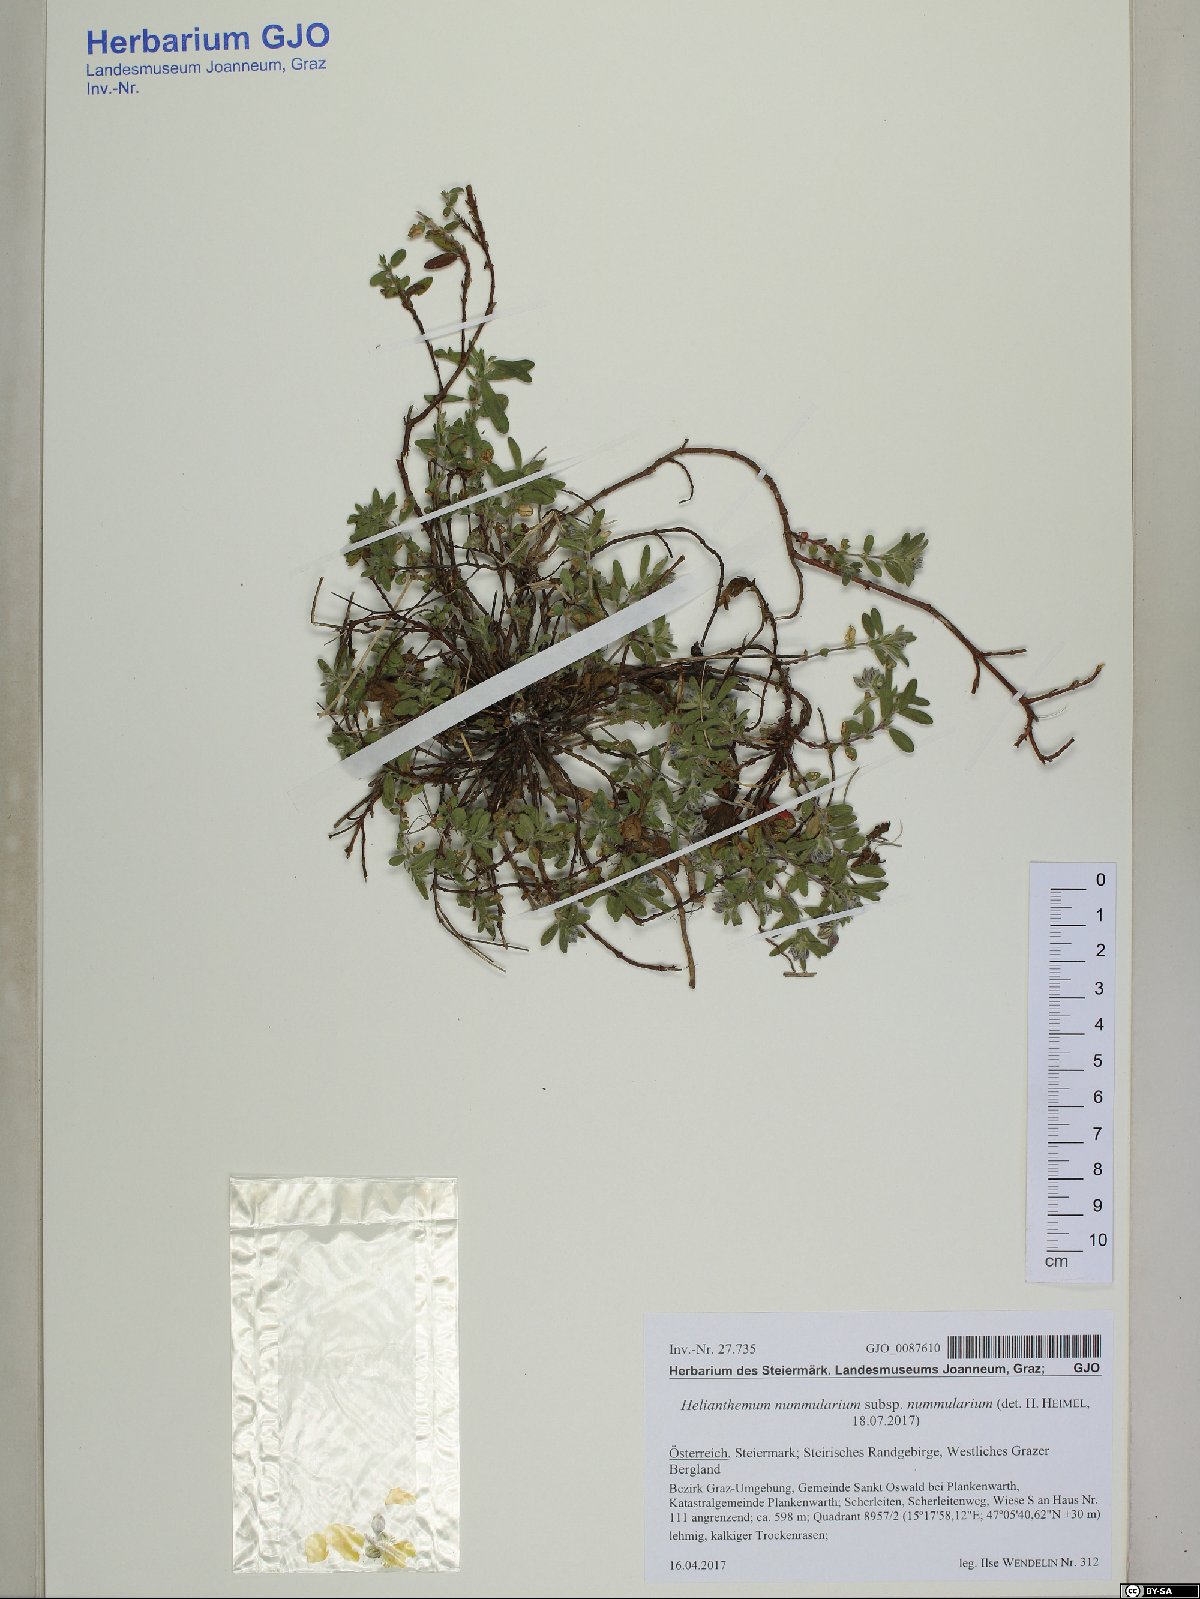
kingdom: Plantae
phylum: Tracheophyta
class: Magnoliopsida
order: Malvales
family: Cistaceae
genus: Helianthemum
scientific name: Helianthemum nummularium
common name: Common rock-rose
